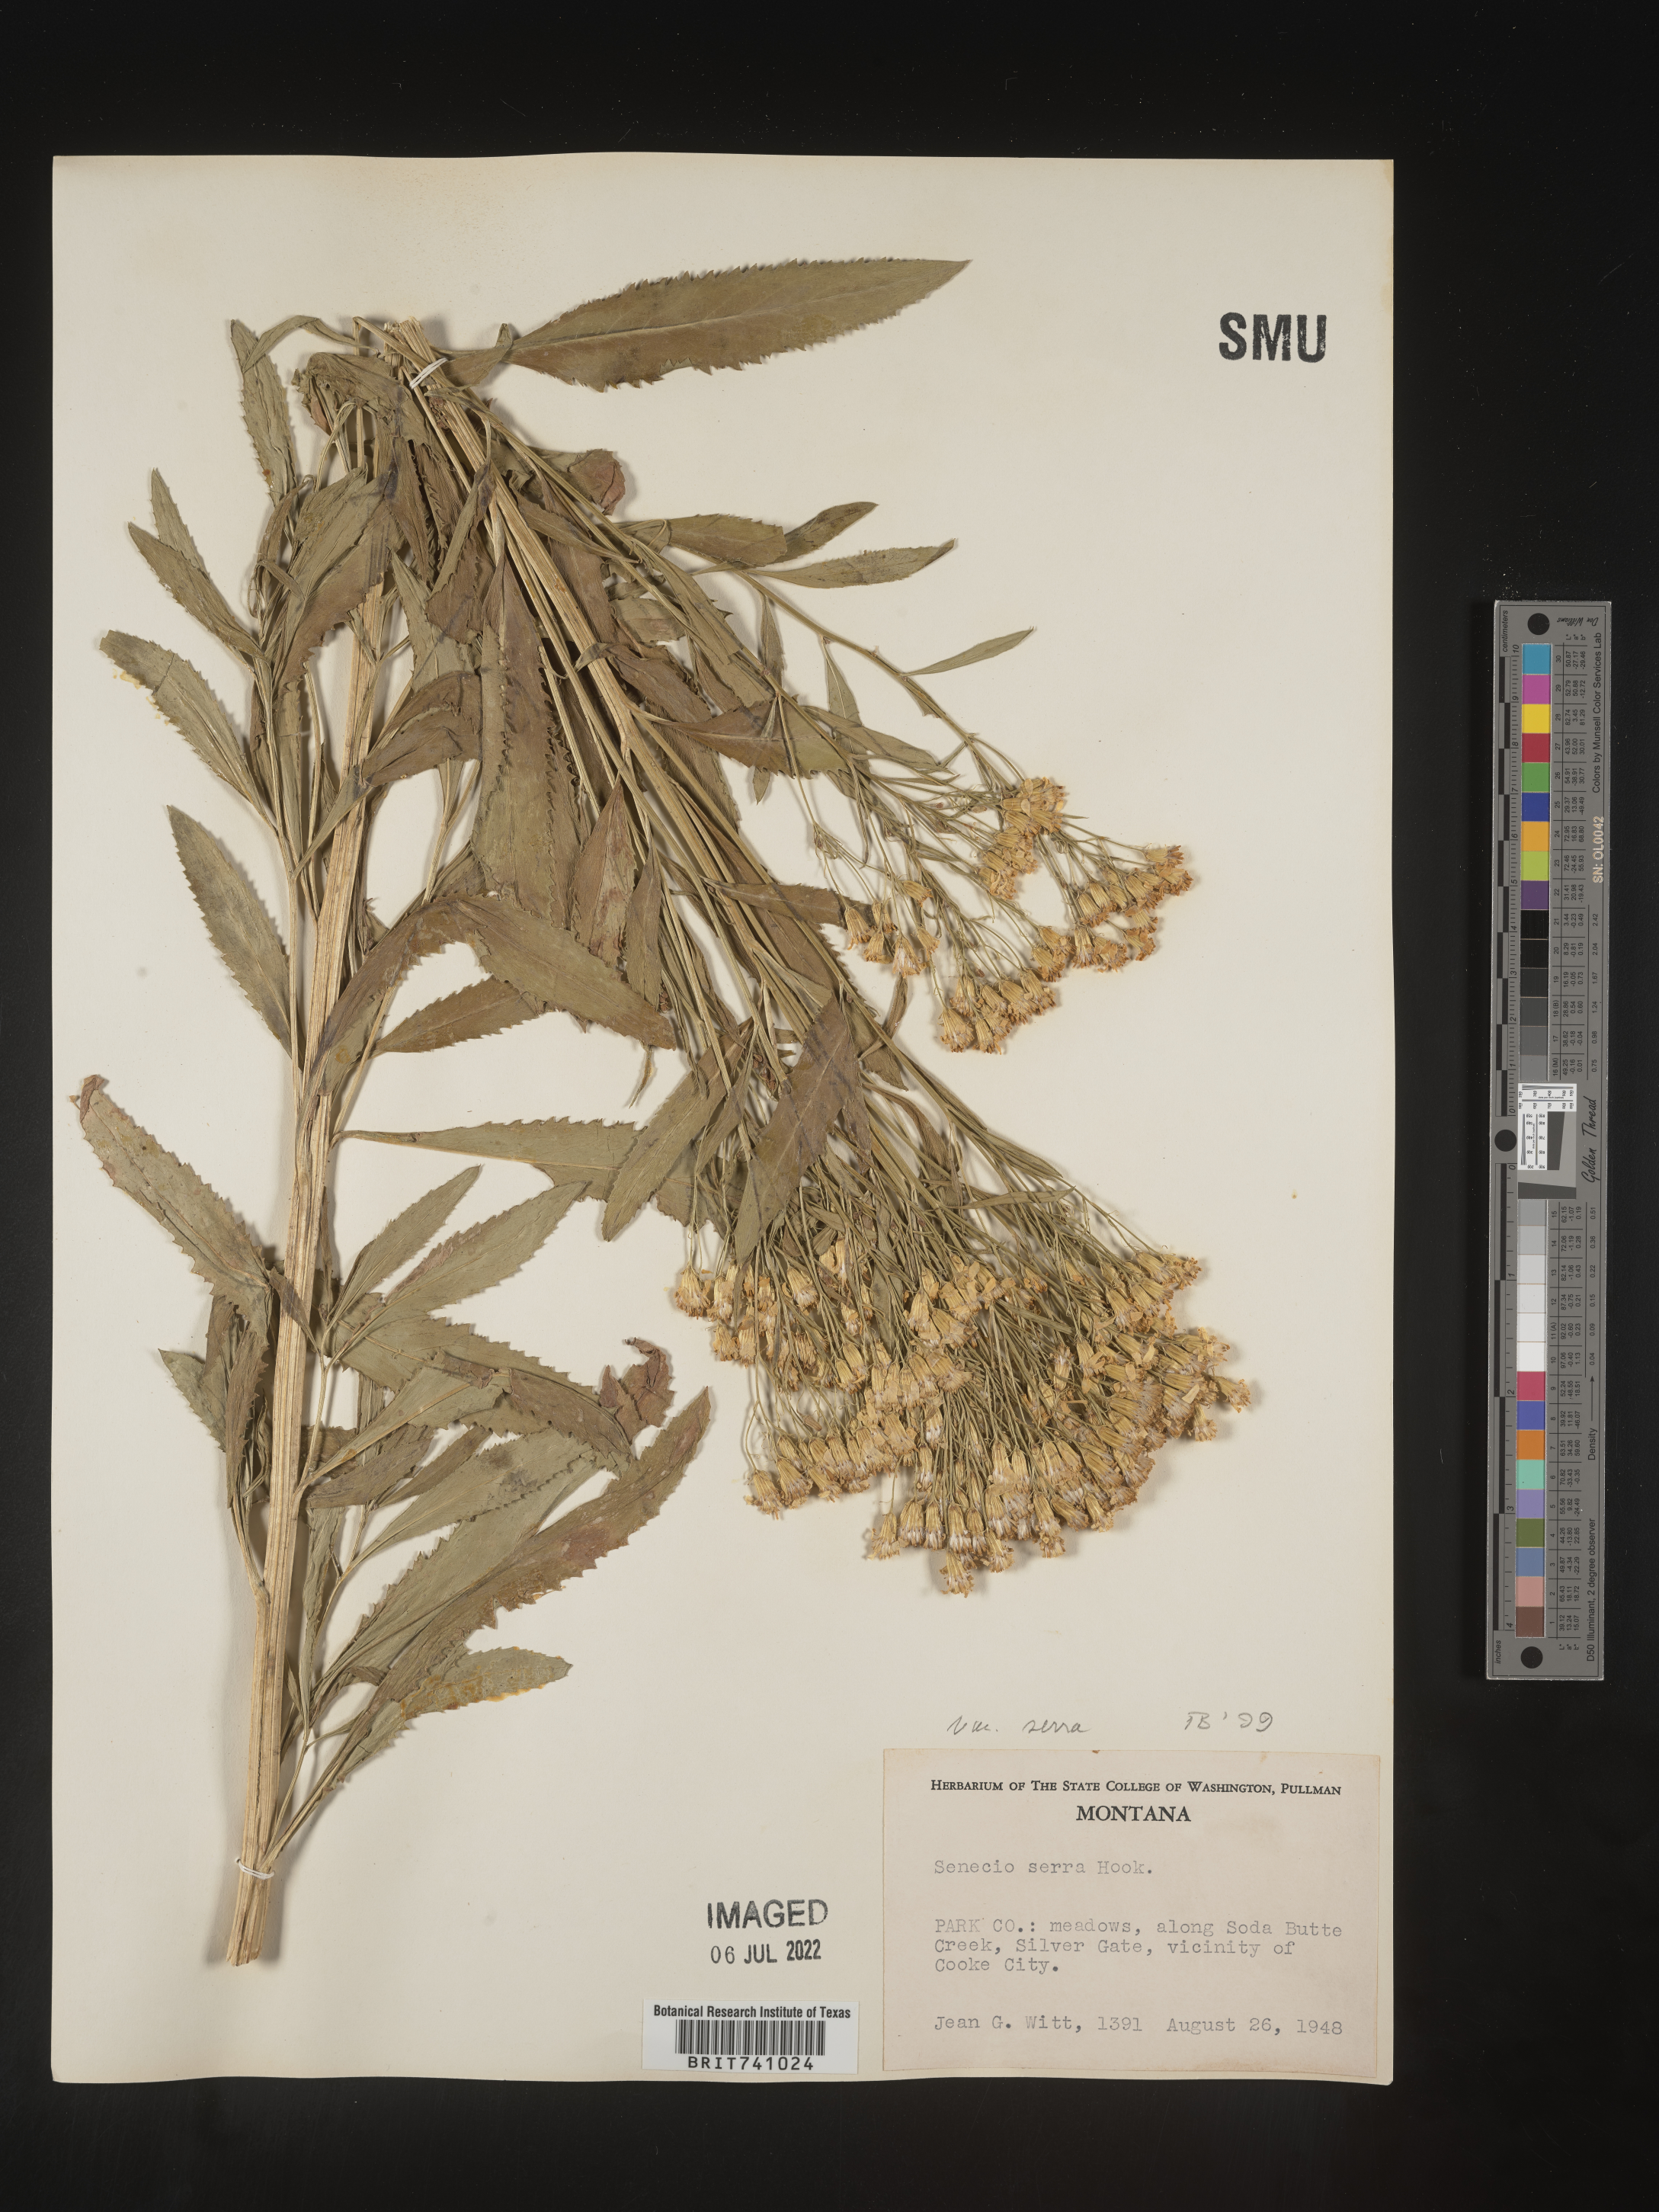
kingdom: Plantae
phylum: Tracheophyta
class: Magnoliopsida
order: Asterales
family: Asteraceae
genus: Senecio
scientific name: Senecio serra
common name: Tall ragwort
